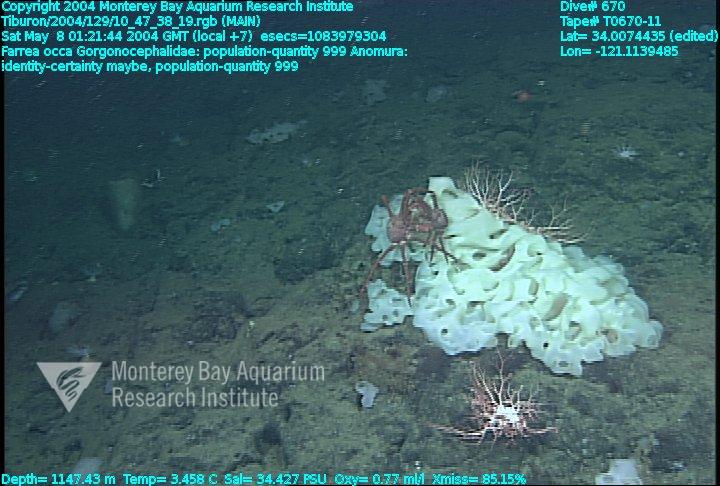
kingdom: Animalia
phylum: Porifera
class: Hexactinellida
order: Sceptrulophora
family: Farreidae
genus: Farrea
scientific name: Farrea occa
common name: Reversed glass sponge
